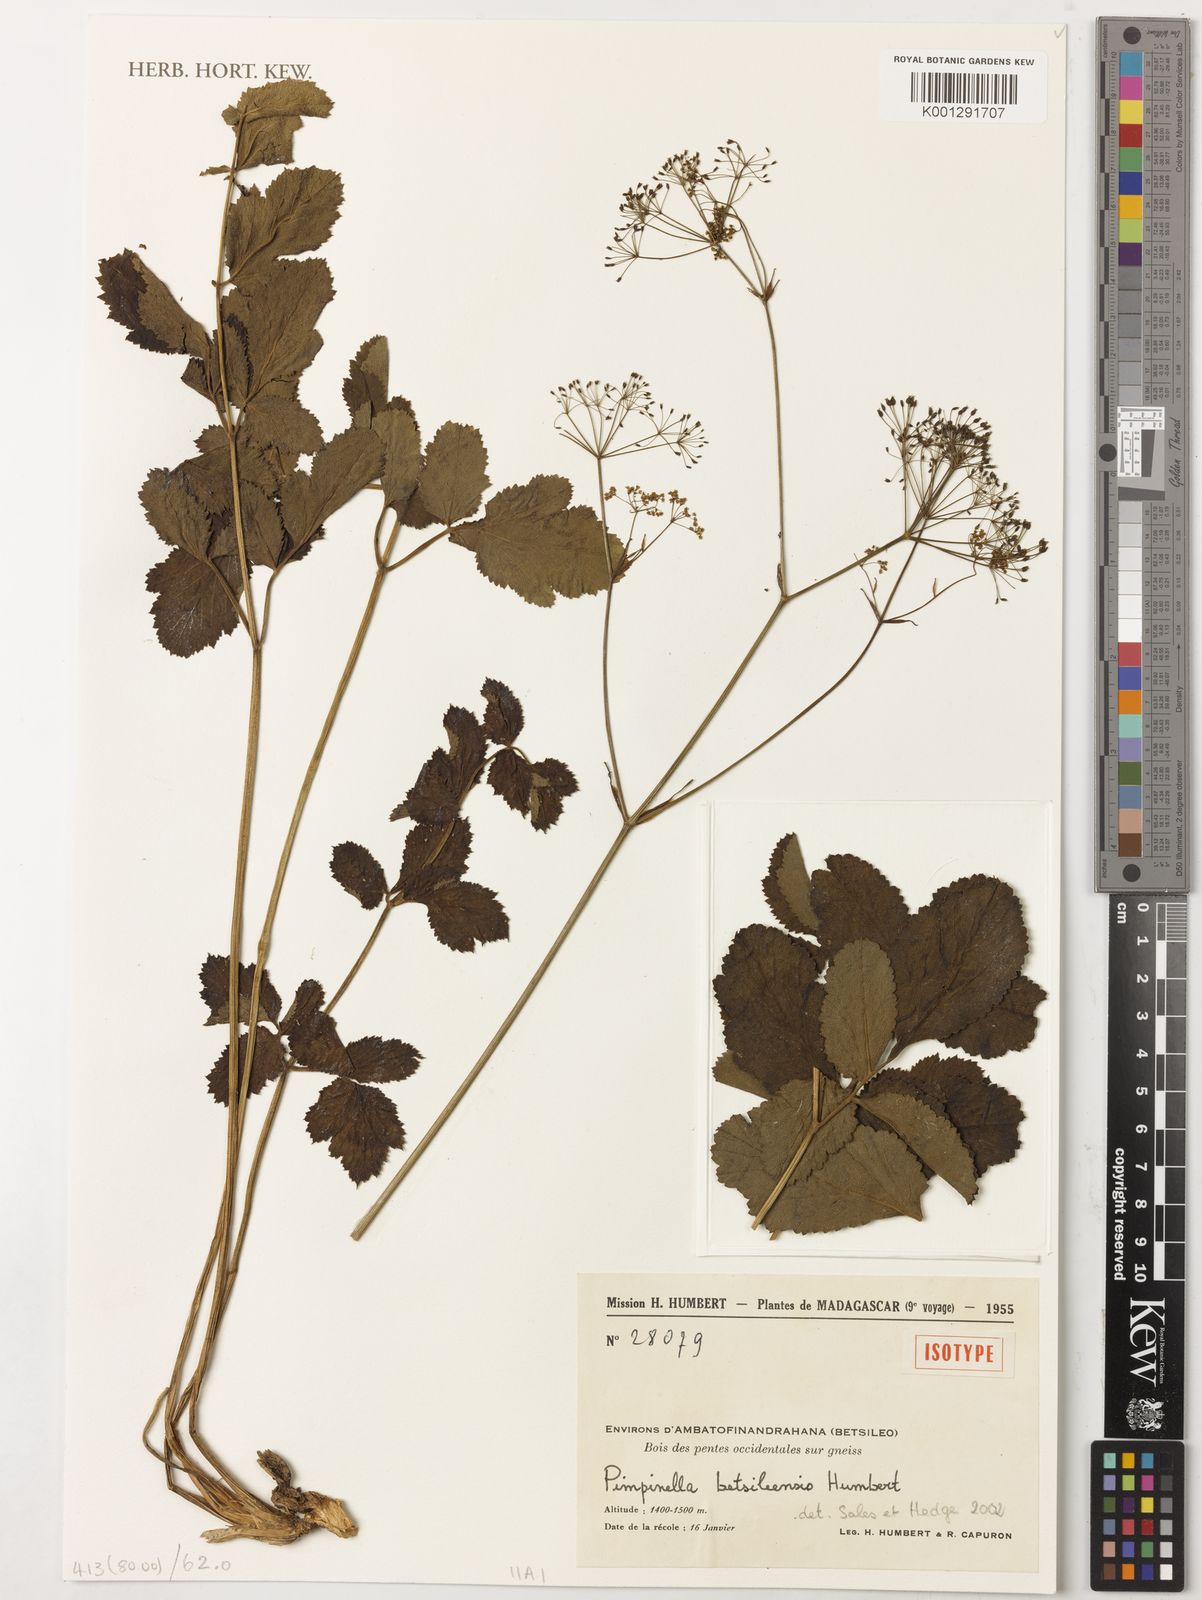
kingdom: Plantae
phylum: Tracheophyta
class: Magnoliopsida
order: Apiales
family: Apiaceae
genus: Pimpinella
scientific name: Pimpinella
